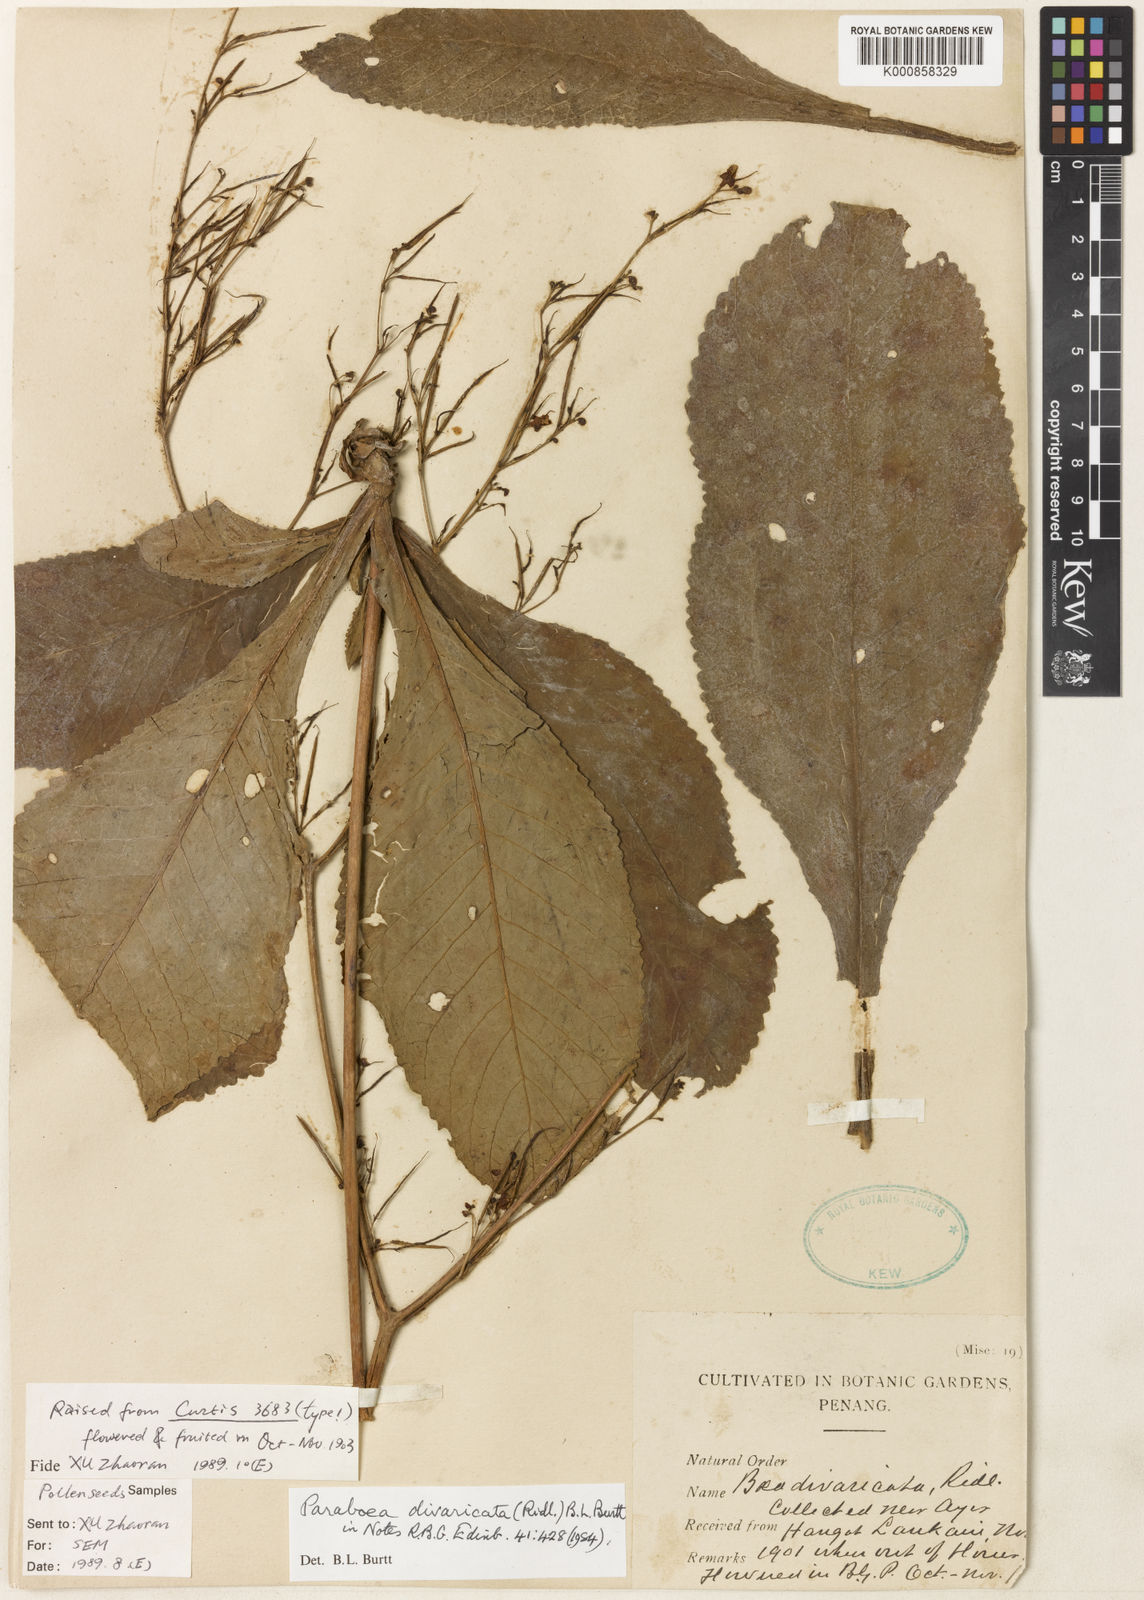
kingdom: Plantae
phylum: Tracheophyta
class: Magnoliopsida
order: Lamiales
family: Gesneriaceae
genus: Paraboea
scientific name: Paraboea divaricata
